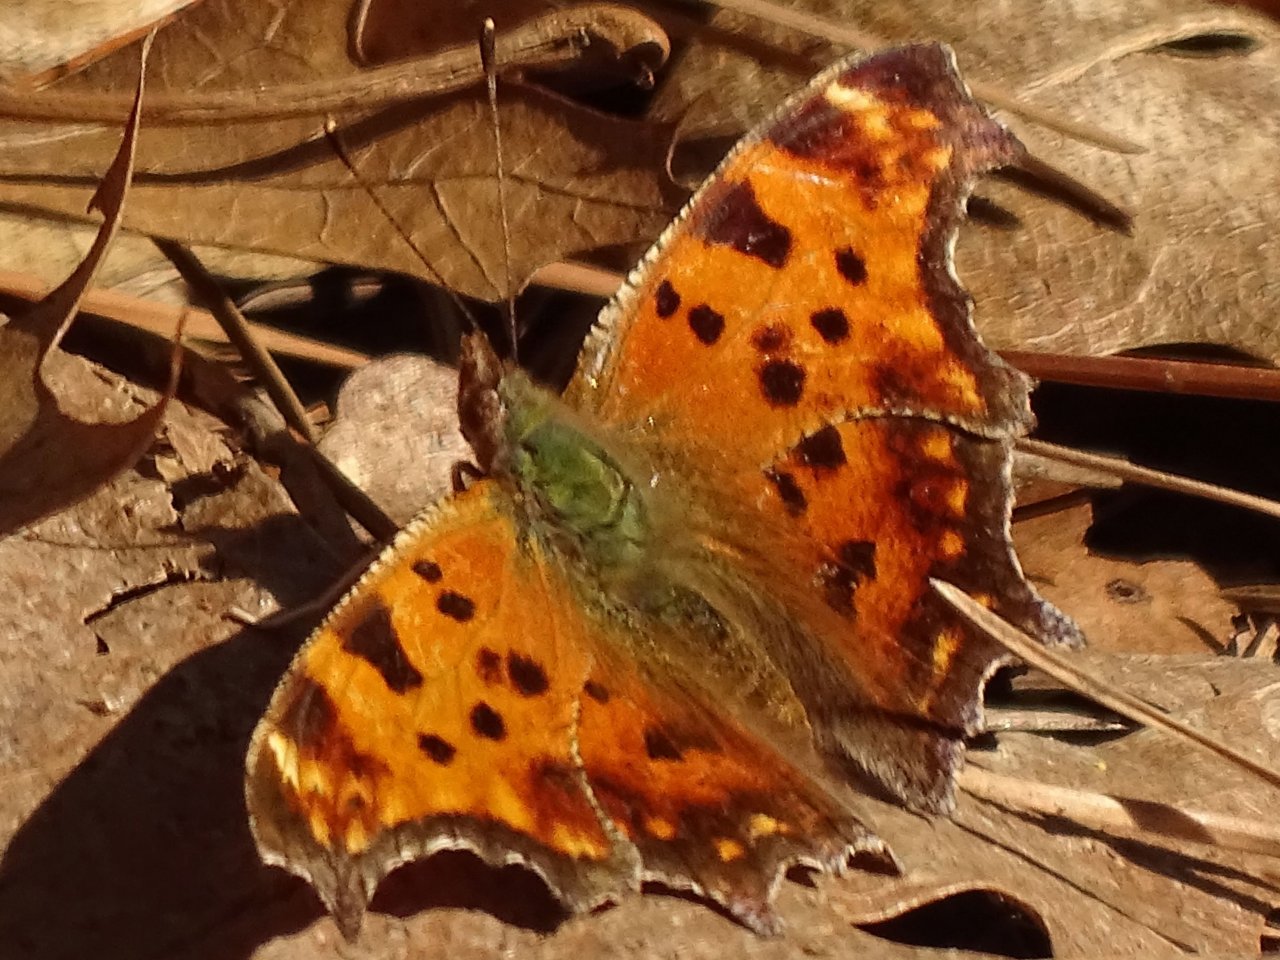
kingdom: Animalia
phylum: Arthropoda
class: Insecta
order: Lepidoptera
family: Nymphalidae
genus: Polygonia
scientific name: Polygonia comma
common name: Eastern Comma
